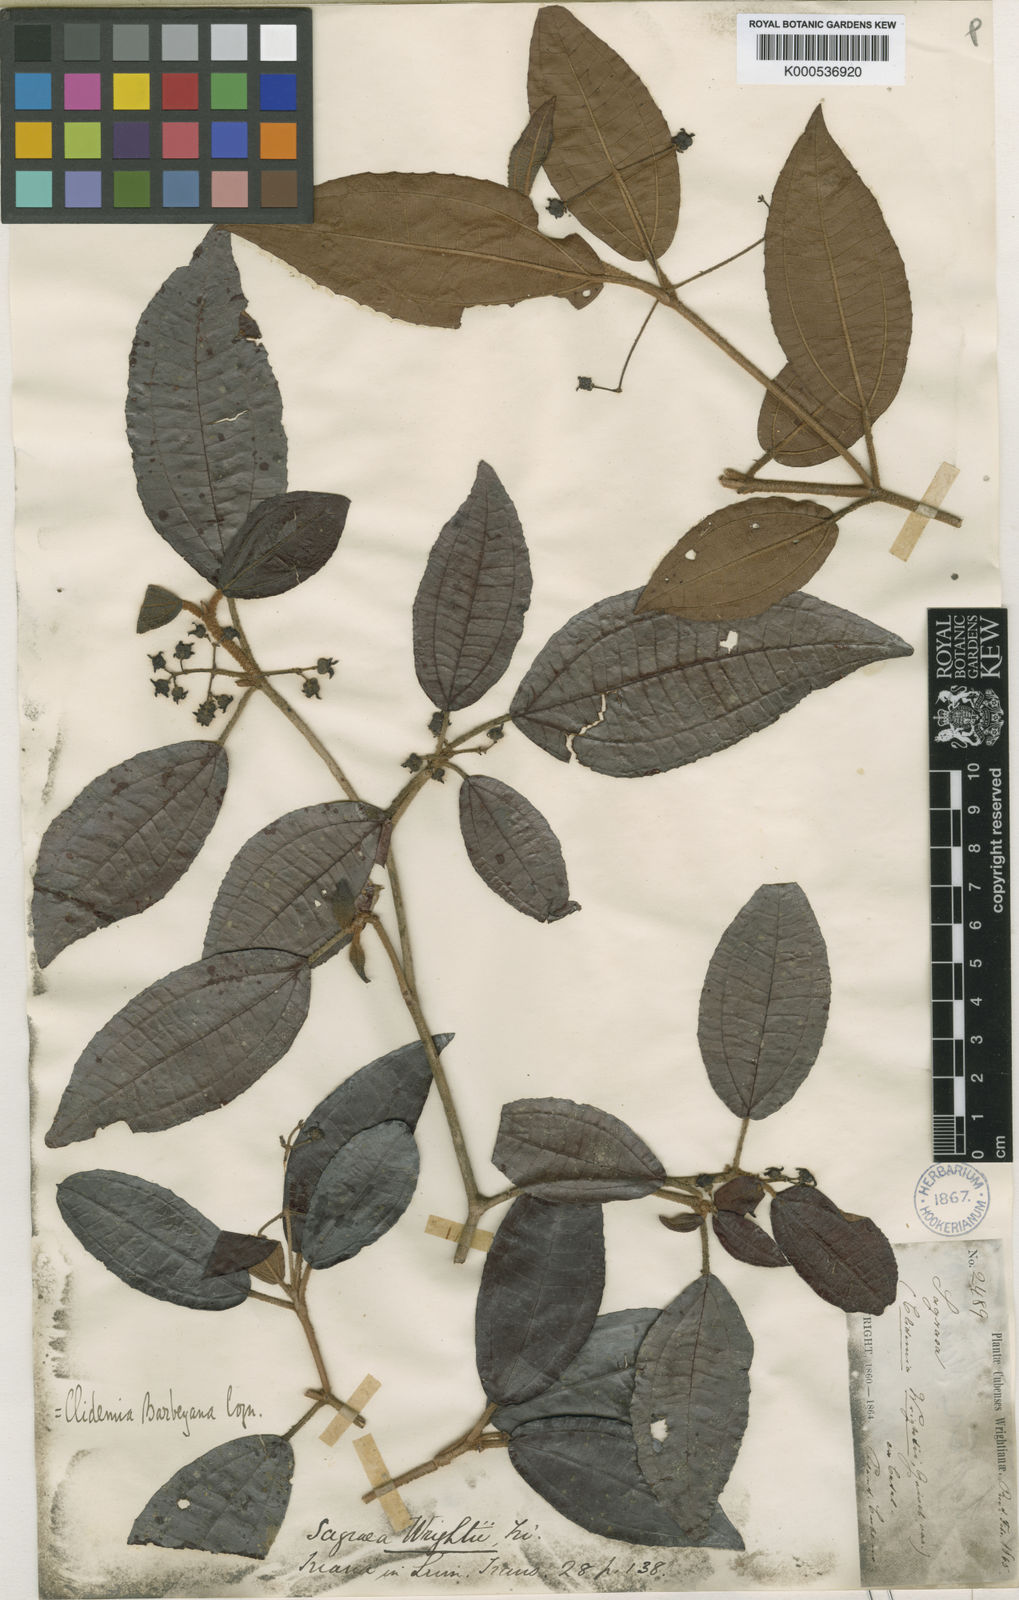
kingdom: Plantae
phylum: Tracheophyta
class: Magnoliopsida
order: Myrtales
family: Melastomataceae
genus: Miconia
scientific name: Miconia charleswrightii
